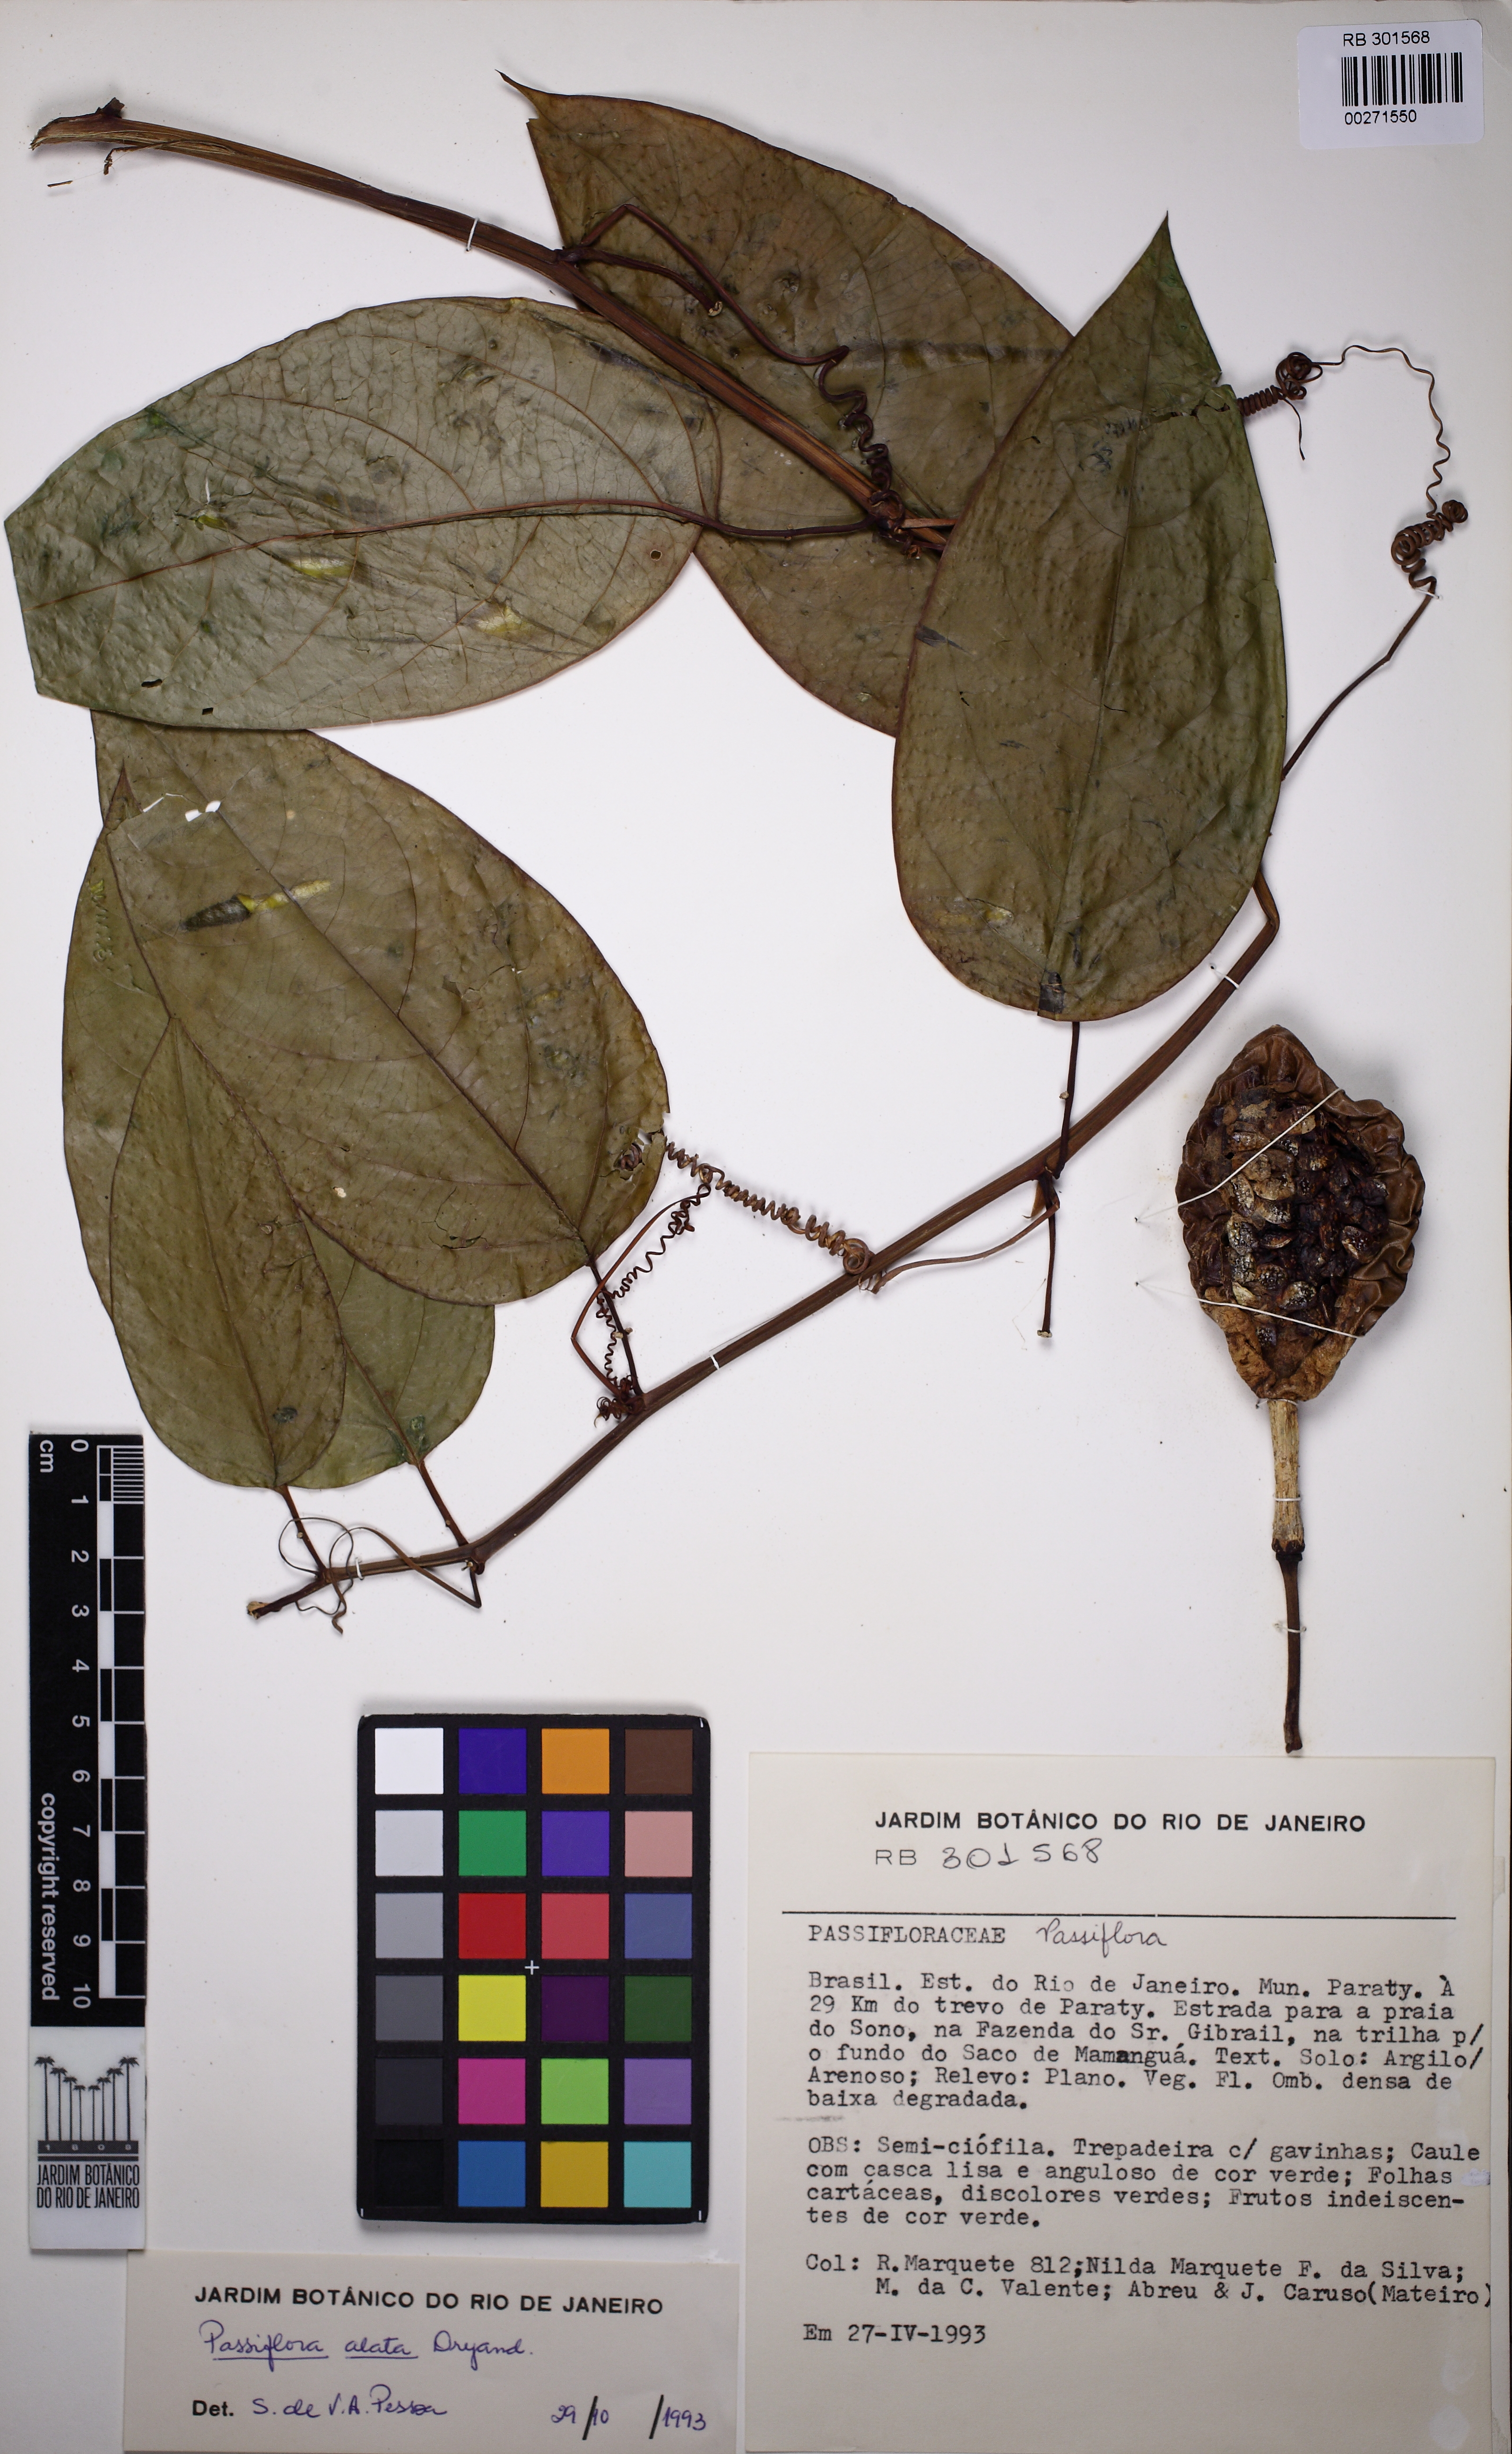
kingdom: Plantae
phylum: Tracheophyta
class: Magnoliopsida
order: Malpighiales
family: Passifloraceae
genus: Passiflora
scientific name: Passiflora alata
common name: Wing-stemmed passion flower
